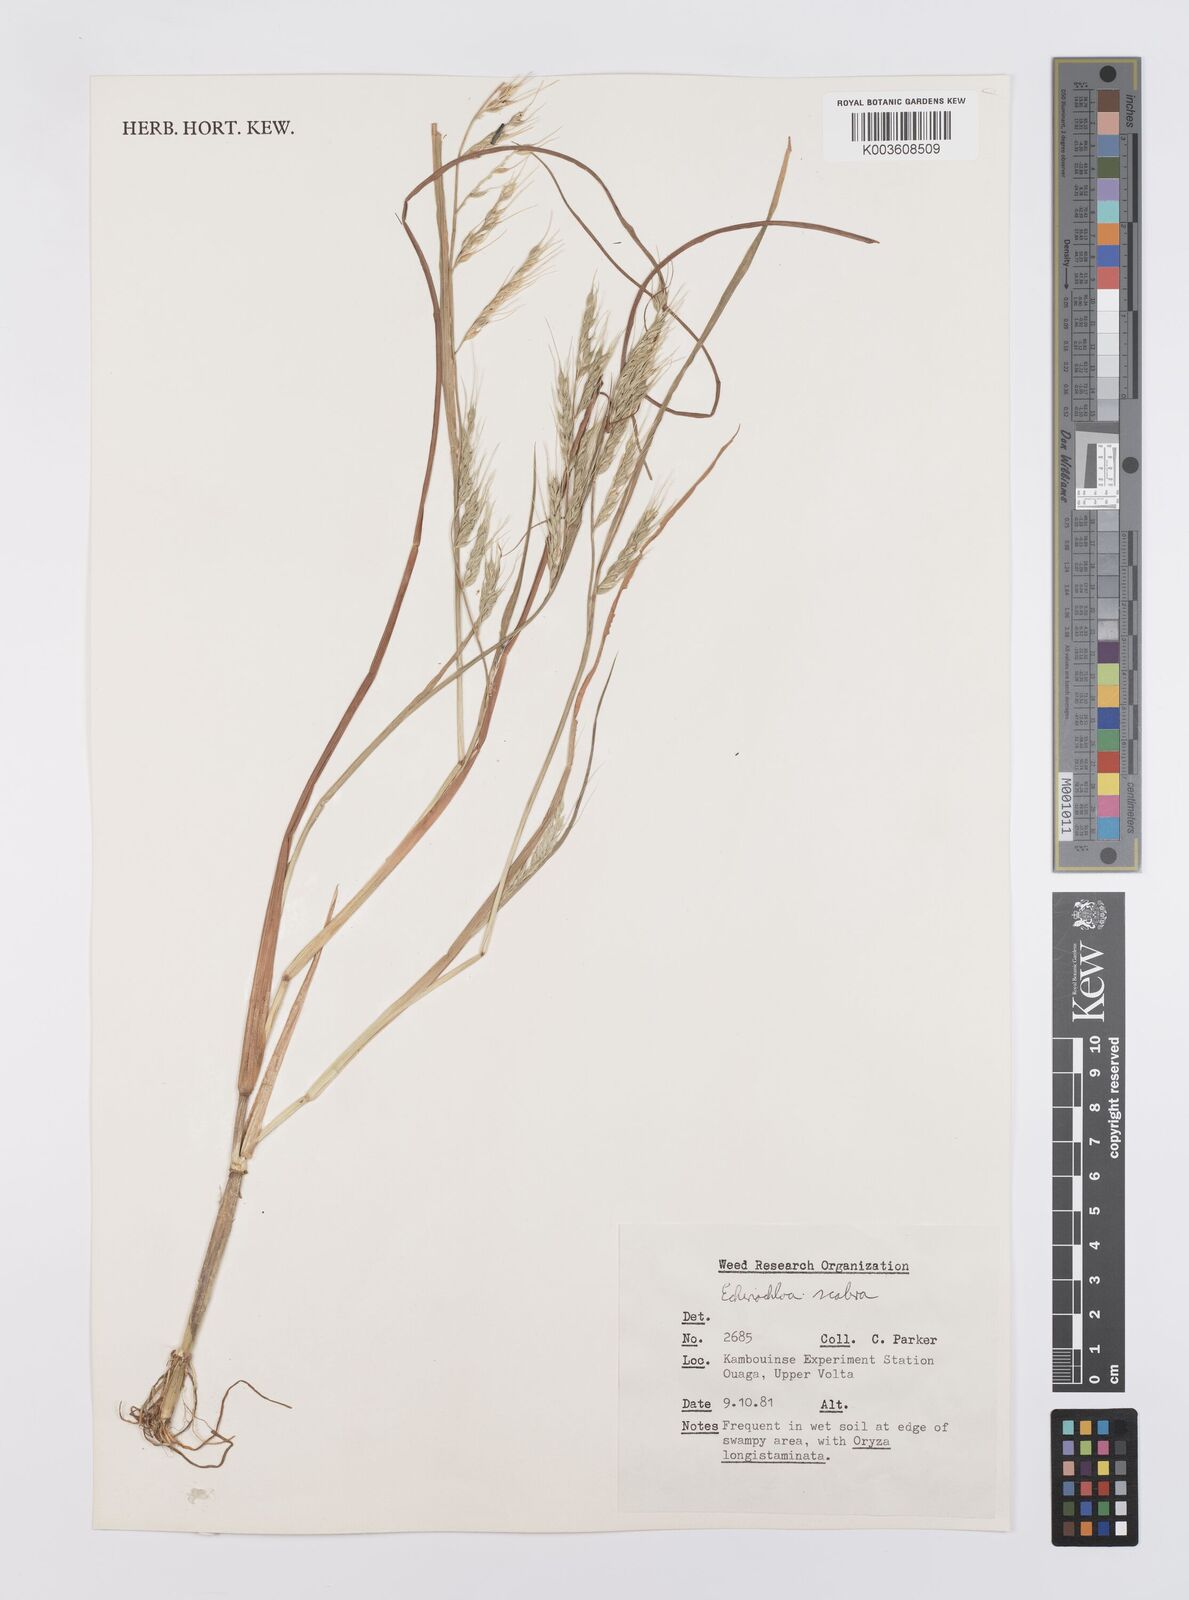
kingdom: Plantae
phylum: Tracheophyta
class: Liliopsida
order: Poales
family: Poaceae
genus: Echinochloa
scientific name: Echinochloa stagnina
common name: Burgu grass
